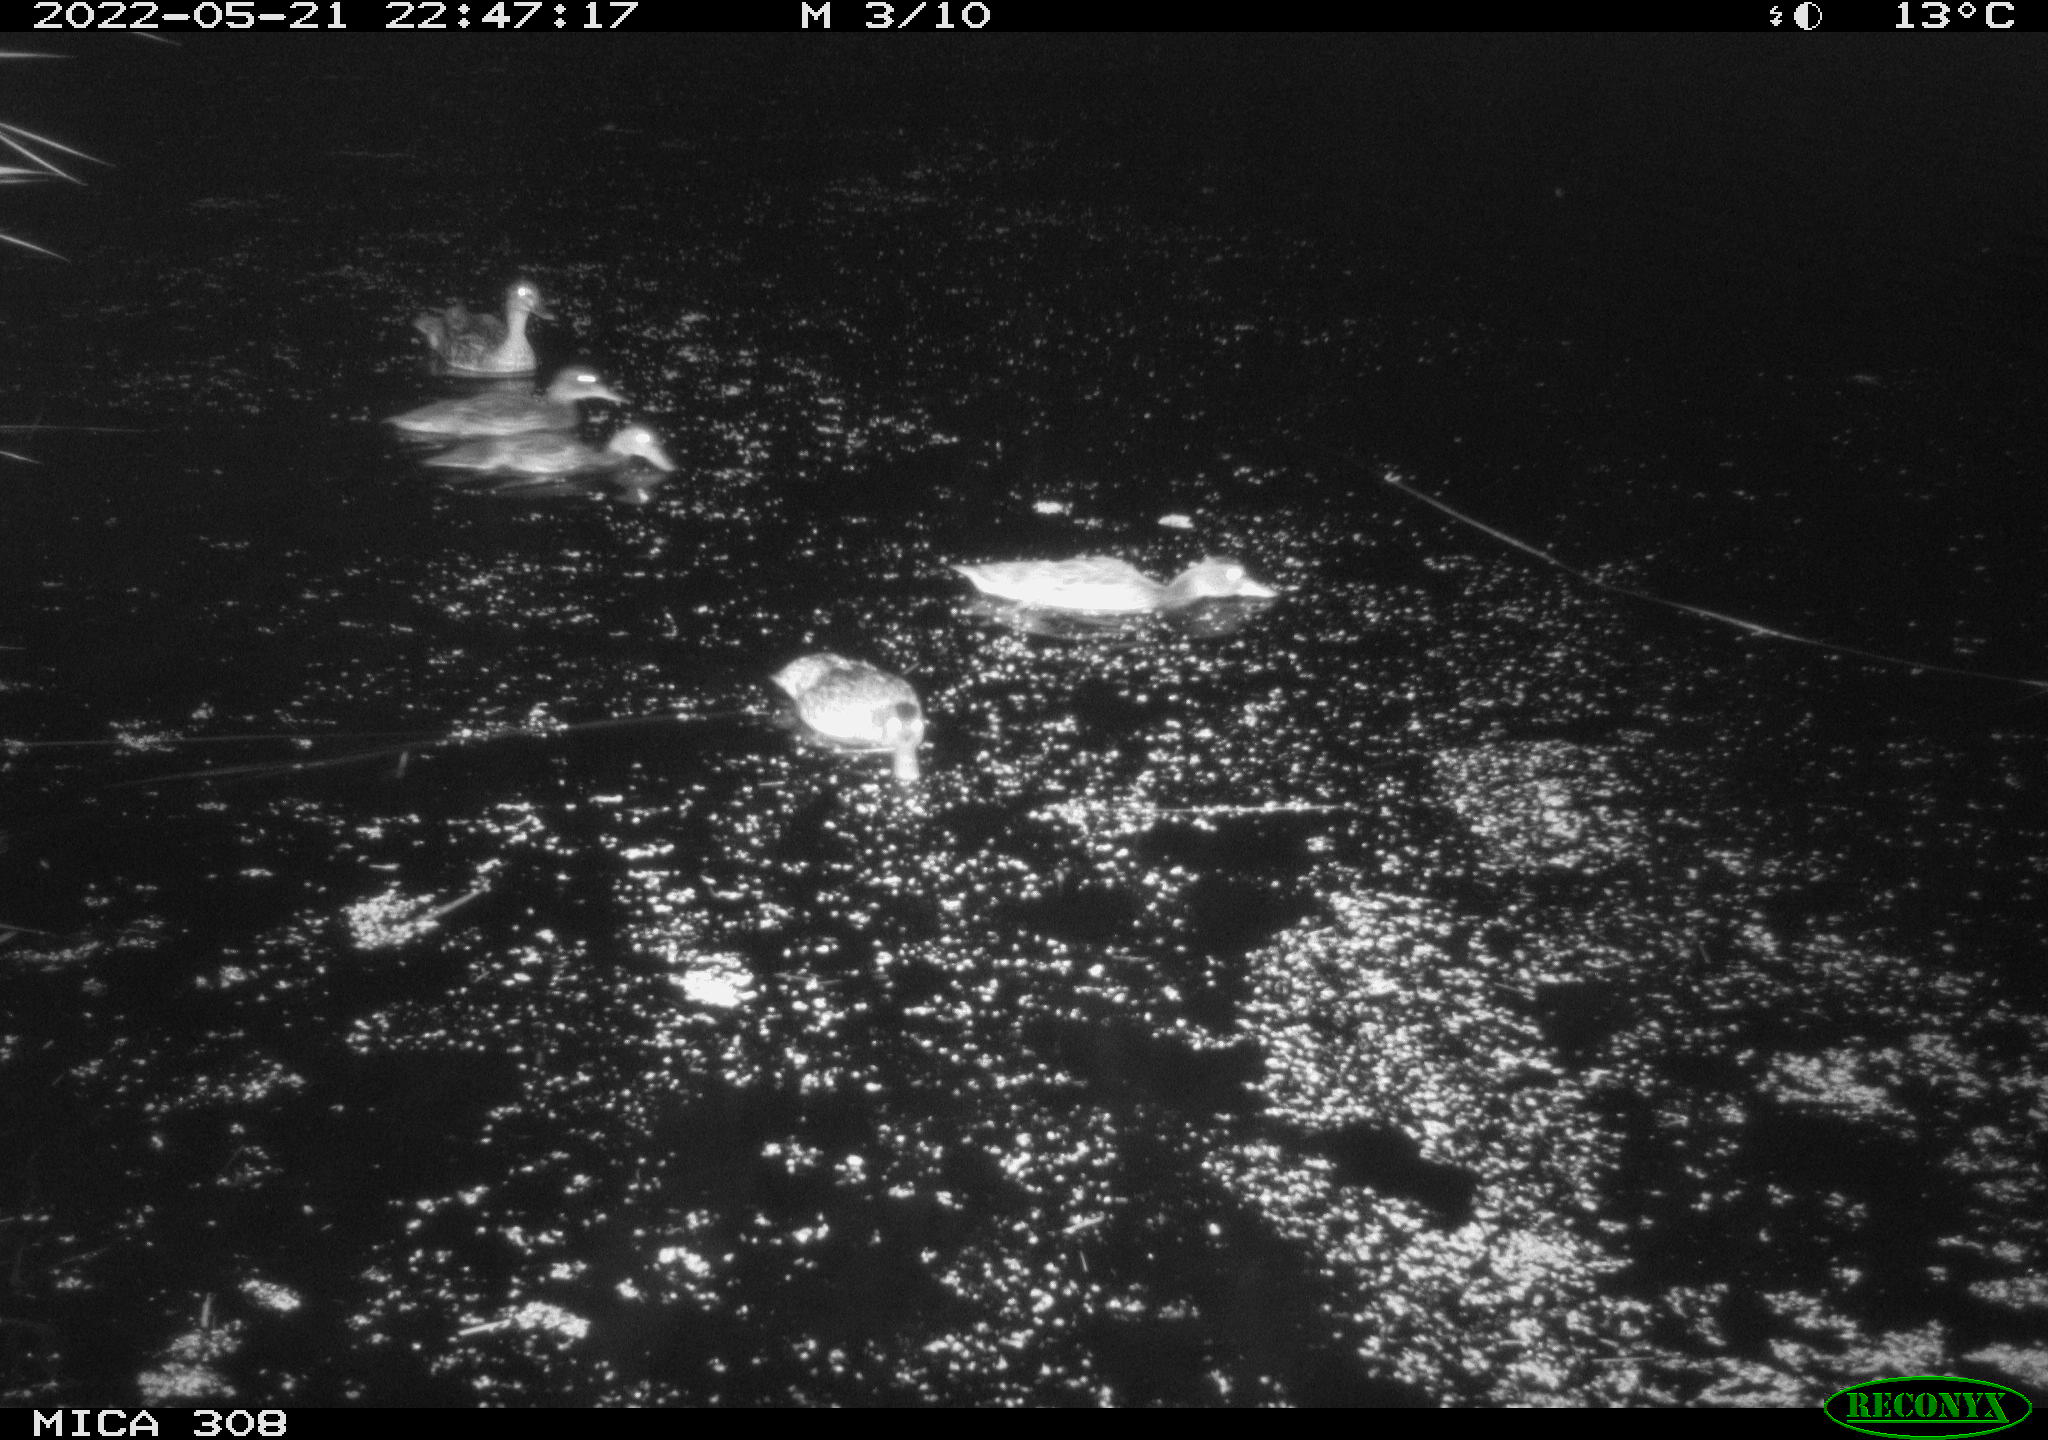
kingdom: Animalia
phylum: Chordata
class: Aves
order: Anseriformes
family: Anatidae
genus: Anas
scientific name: Anas platyrhynchos
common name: Mallard
